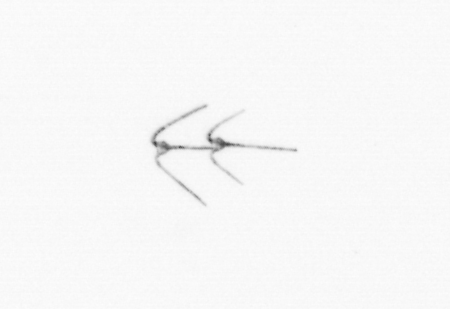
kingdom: Chromista
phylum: Myzozoa
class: Dinophyceae
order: Gonyaulacales
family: Ceratiaceae
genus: Ceratium
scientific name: Ceratium
